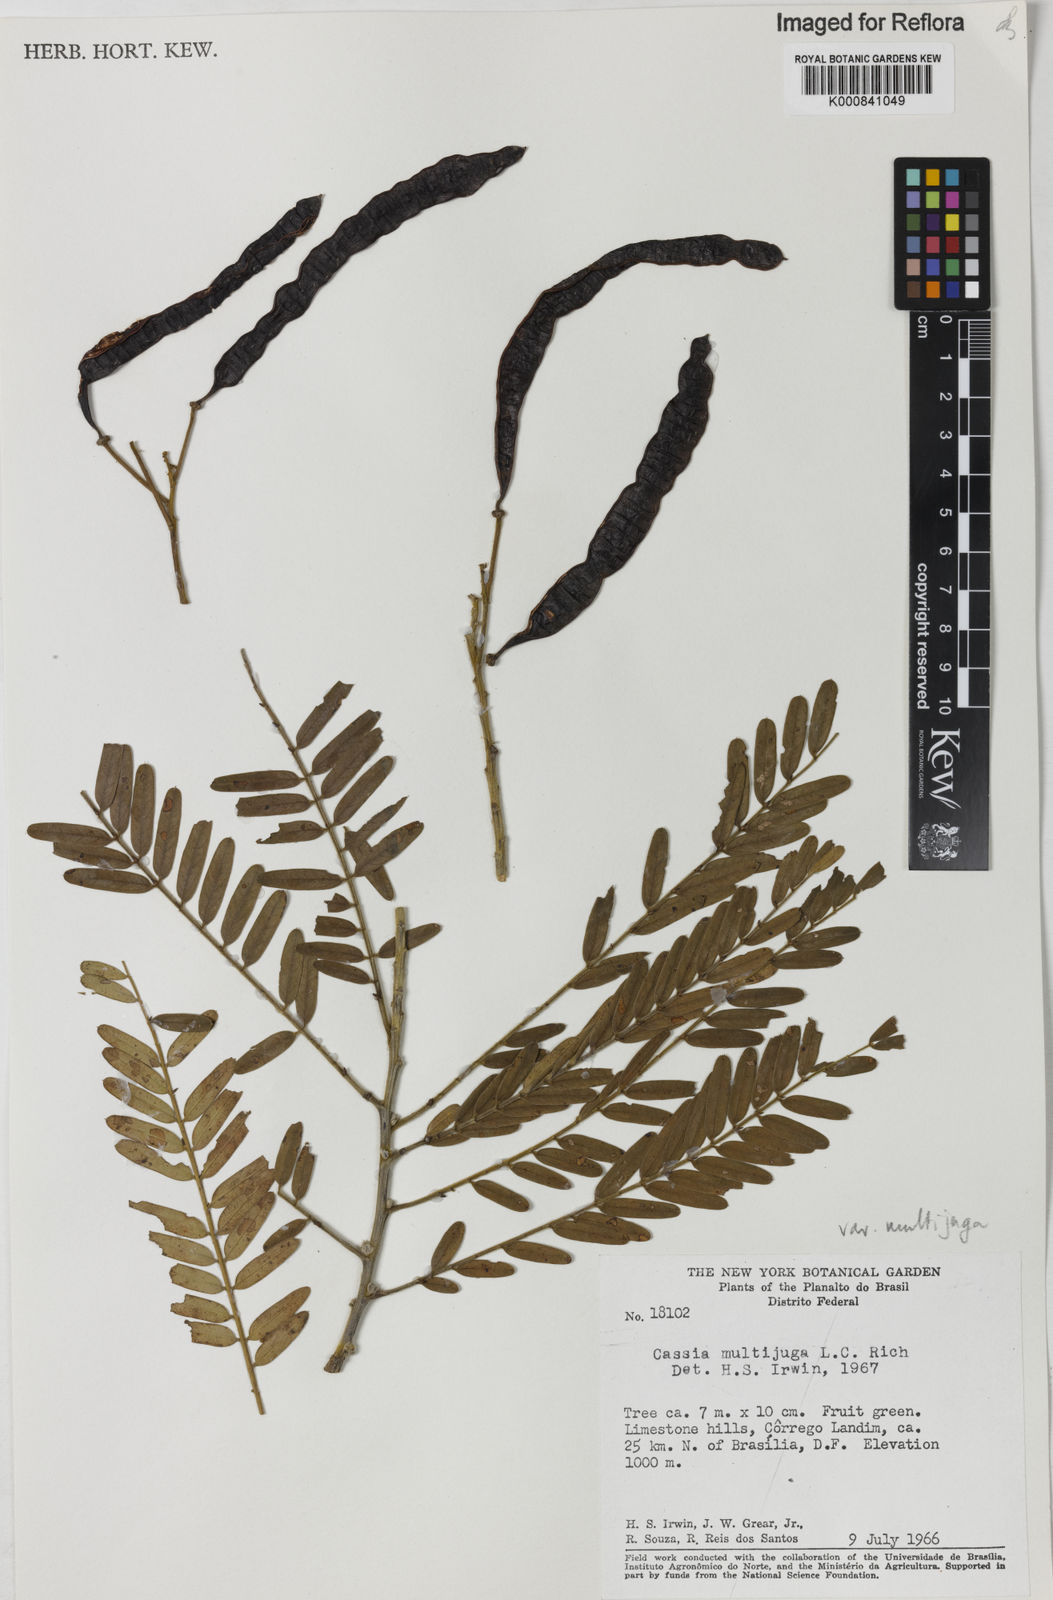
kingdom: Plantae
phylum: Tracheophyta
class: Magnoliopsida
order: Fabales
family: Fabaceae
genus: Senna
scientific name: Senna multijuga
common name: False sicklepod
